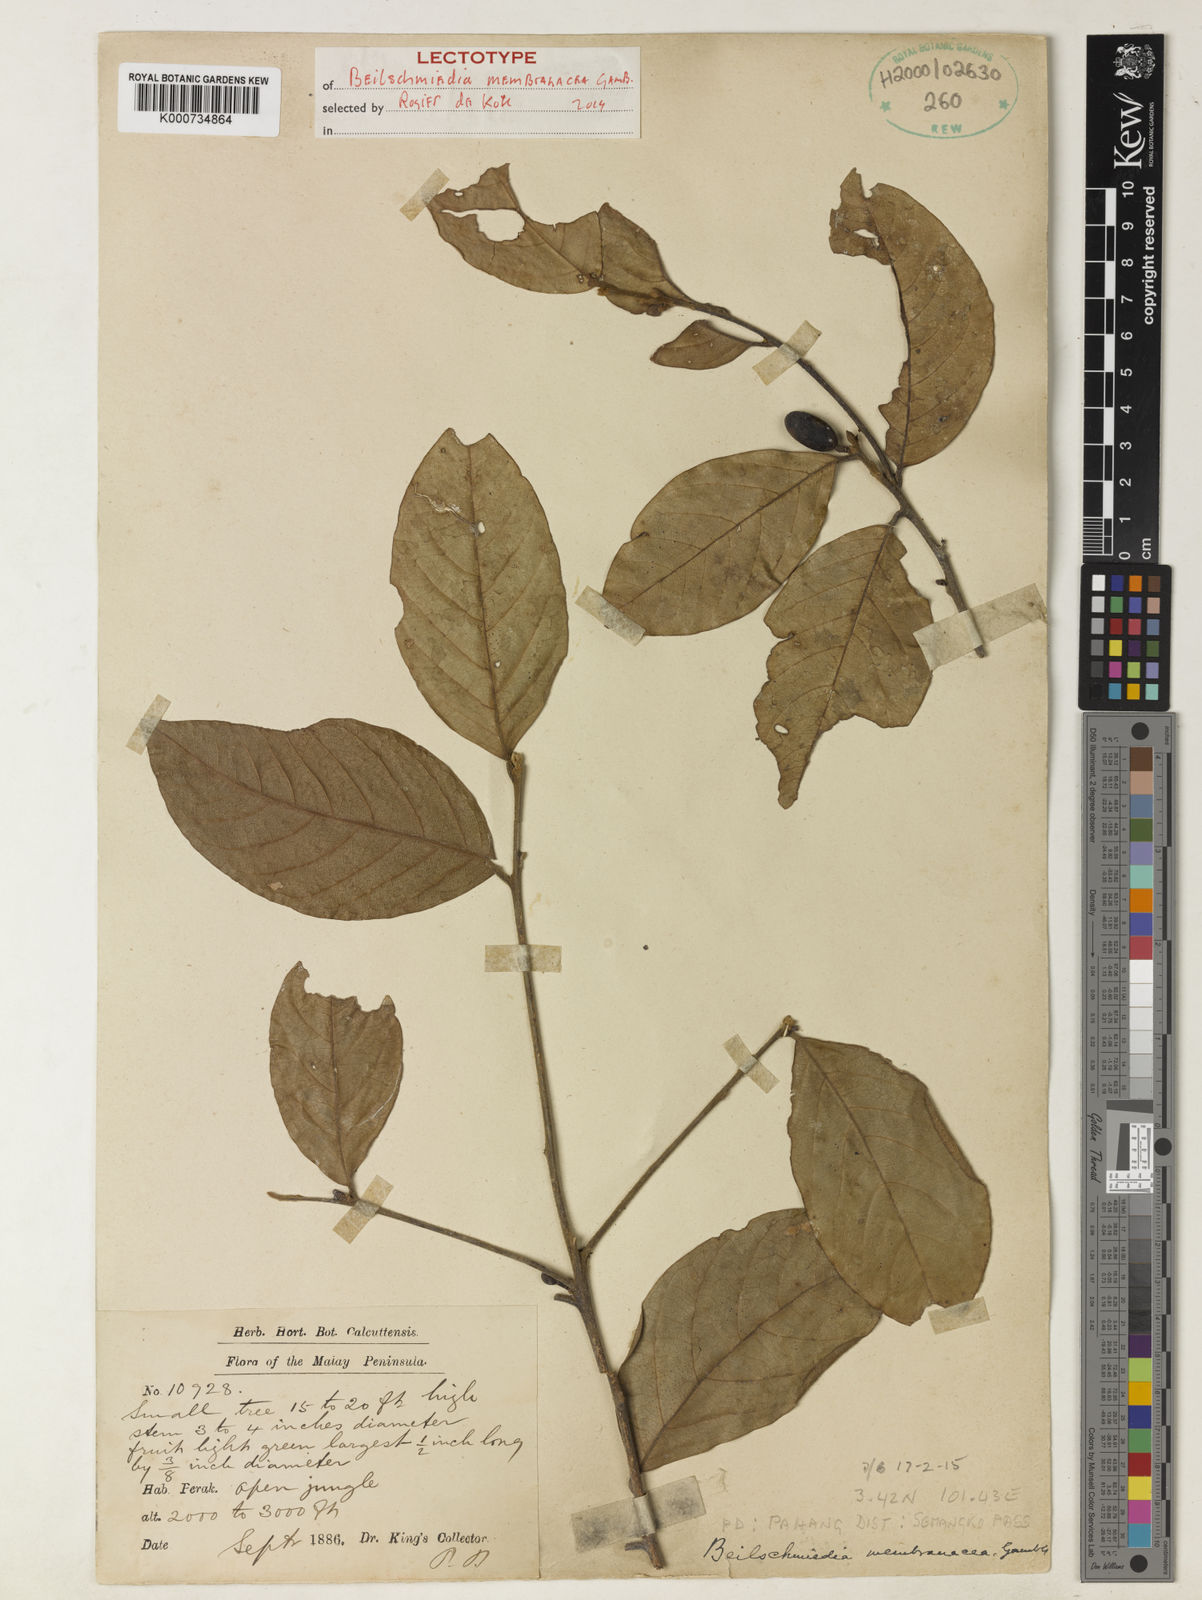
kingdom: Plantae
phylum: Tracheophyta
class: Magnoliopsida
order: Laurales
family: Lauraceae
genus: Beilschmiedia
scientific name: Beilschmiedia membranacea
